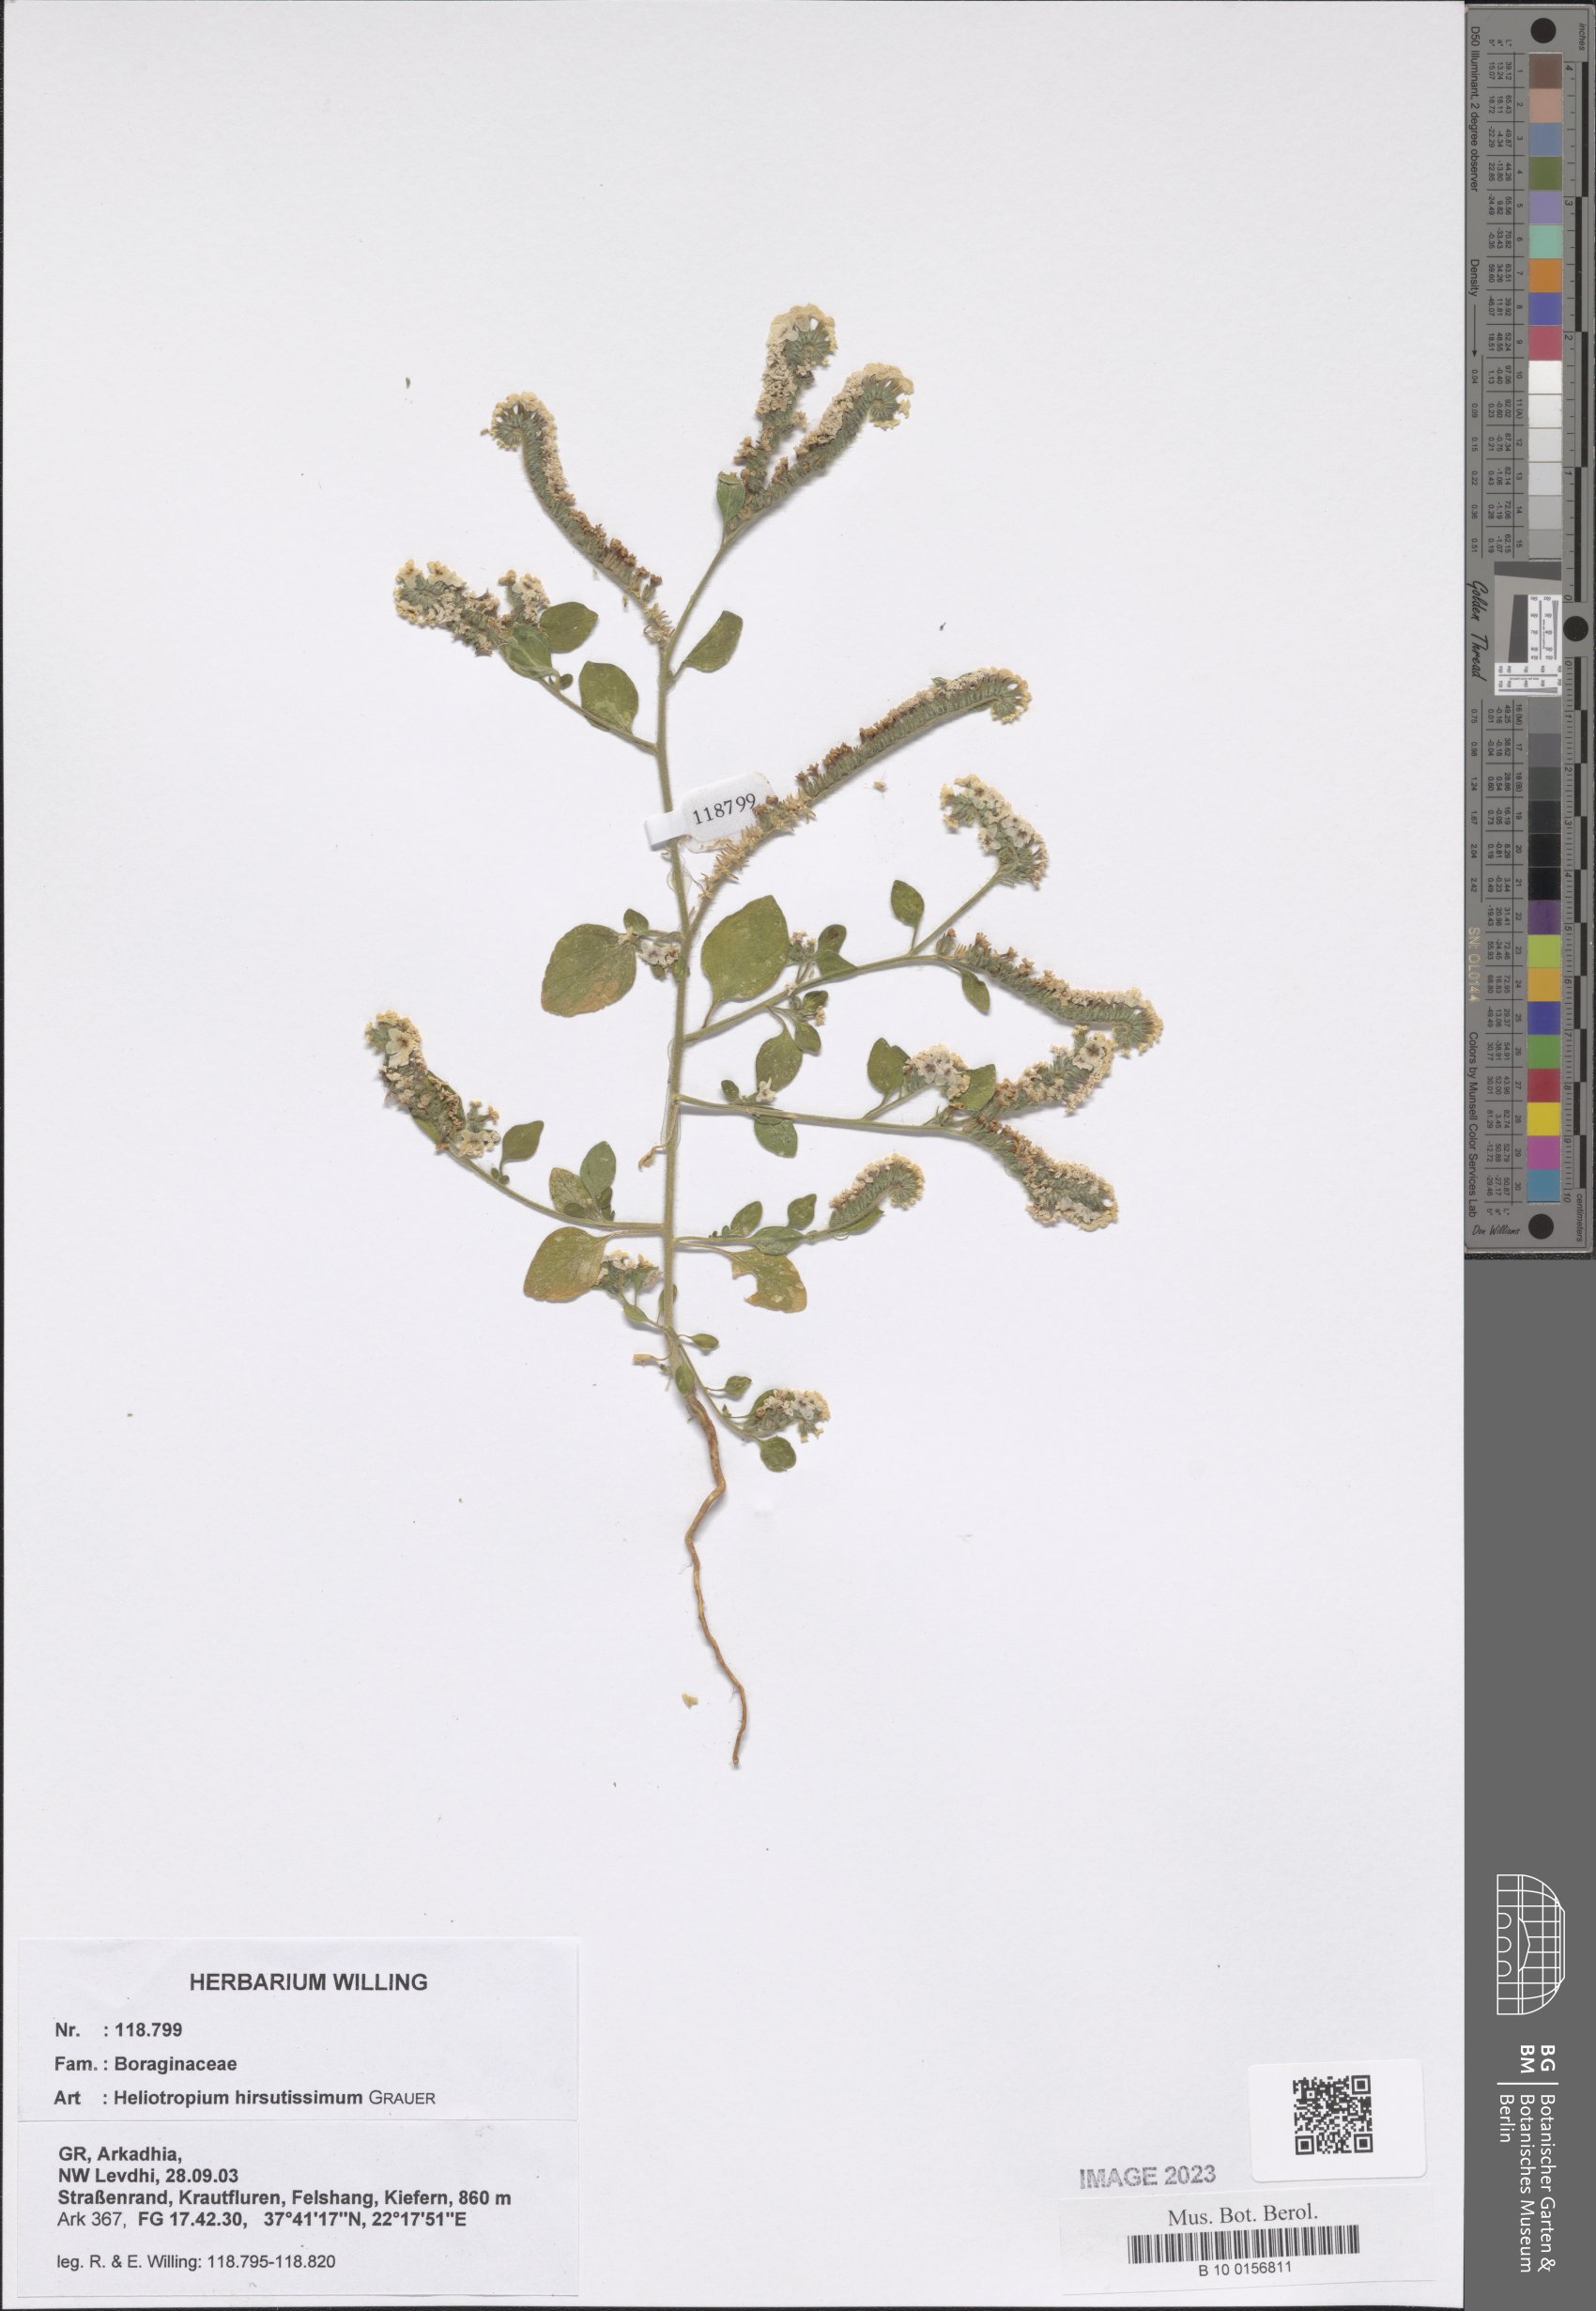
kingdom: Plantae
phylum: Tracheophyta
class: Magnoliopsida
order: Boraginales
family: Heliotropiaceae
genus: Heliotropium
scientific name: Heliotropium hirsutissimum
